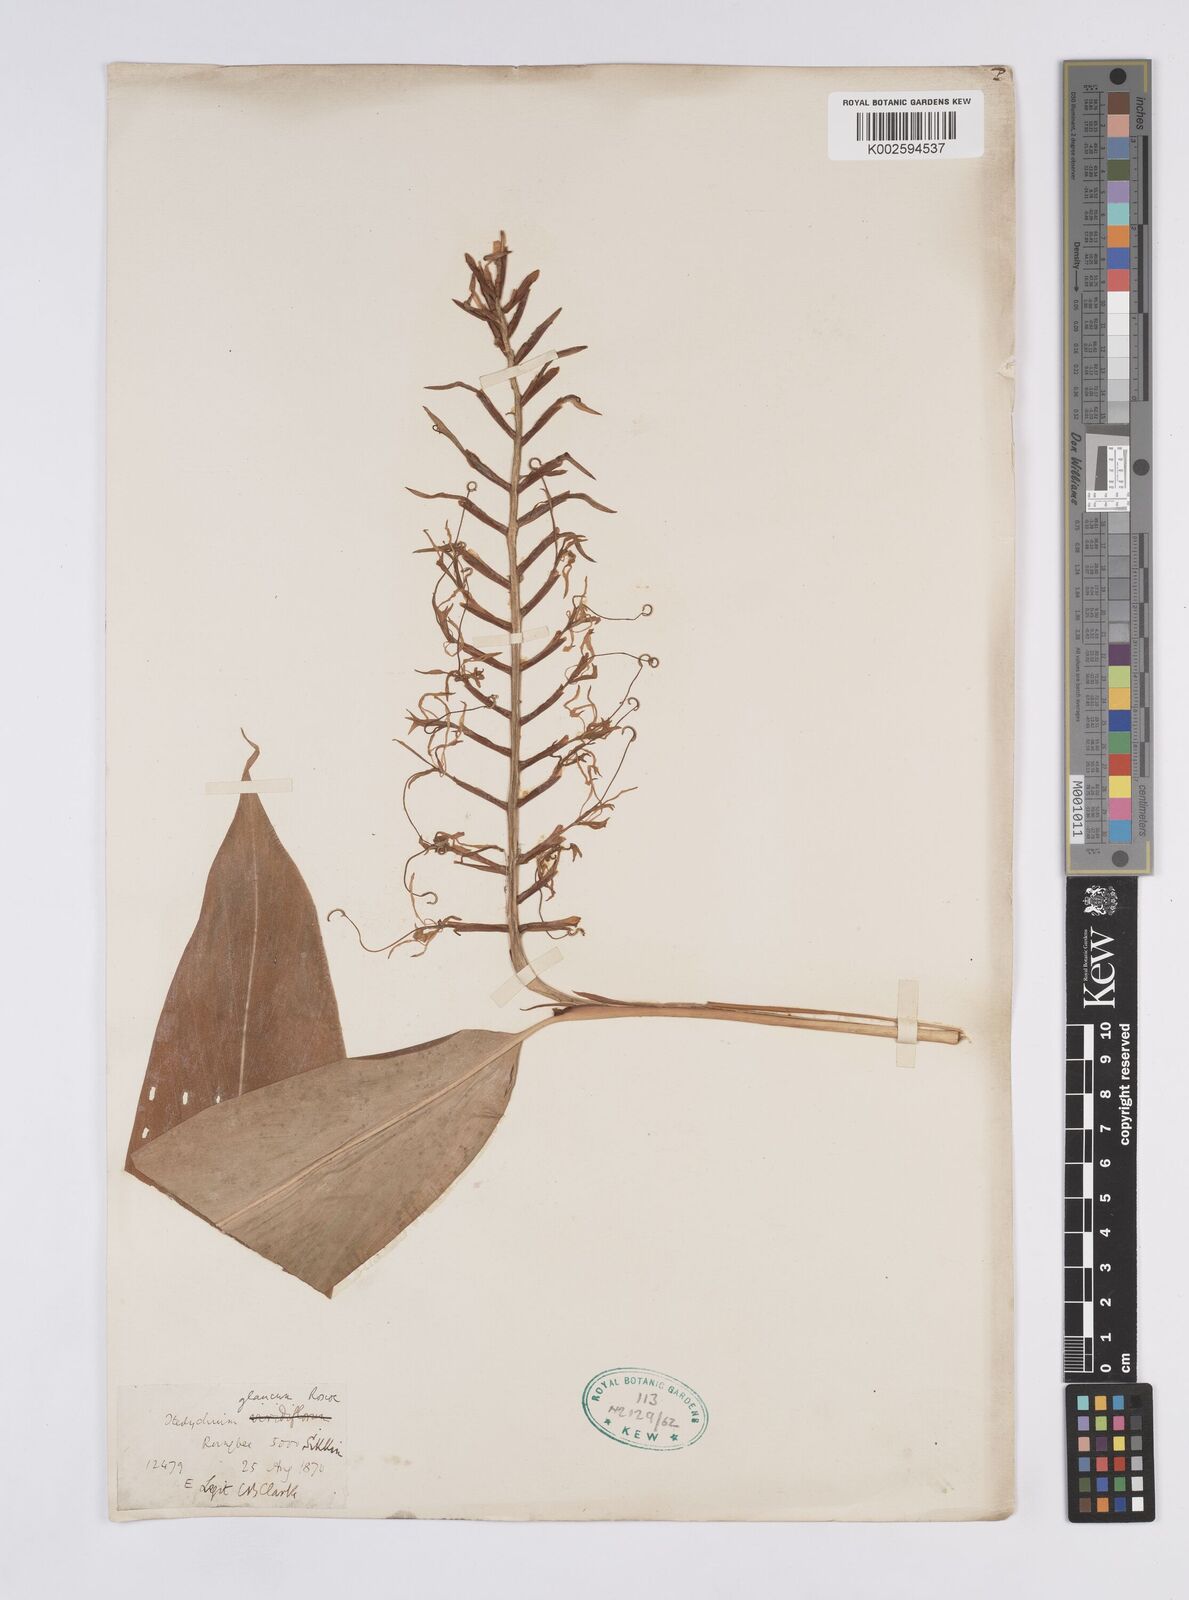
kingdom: Plantae
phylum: Tracheophyta
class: Liliopsida
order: Zingiberales
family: Zingiberaceae
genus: Hedychium
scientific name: Hedychium glaucum
